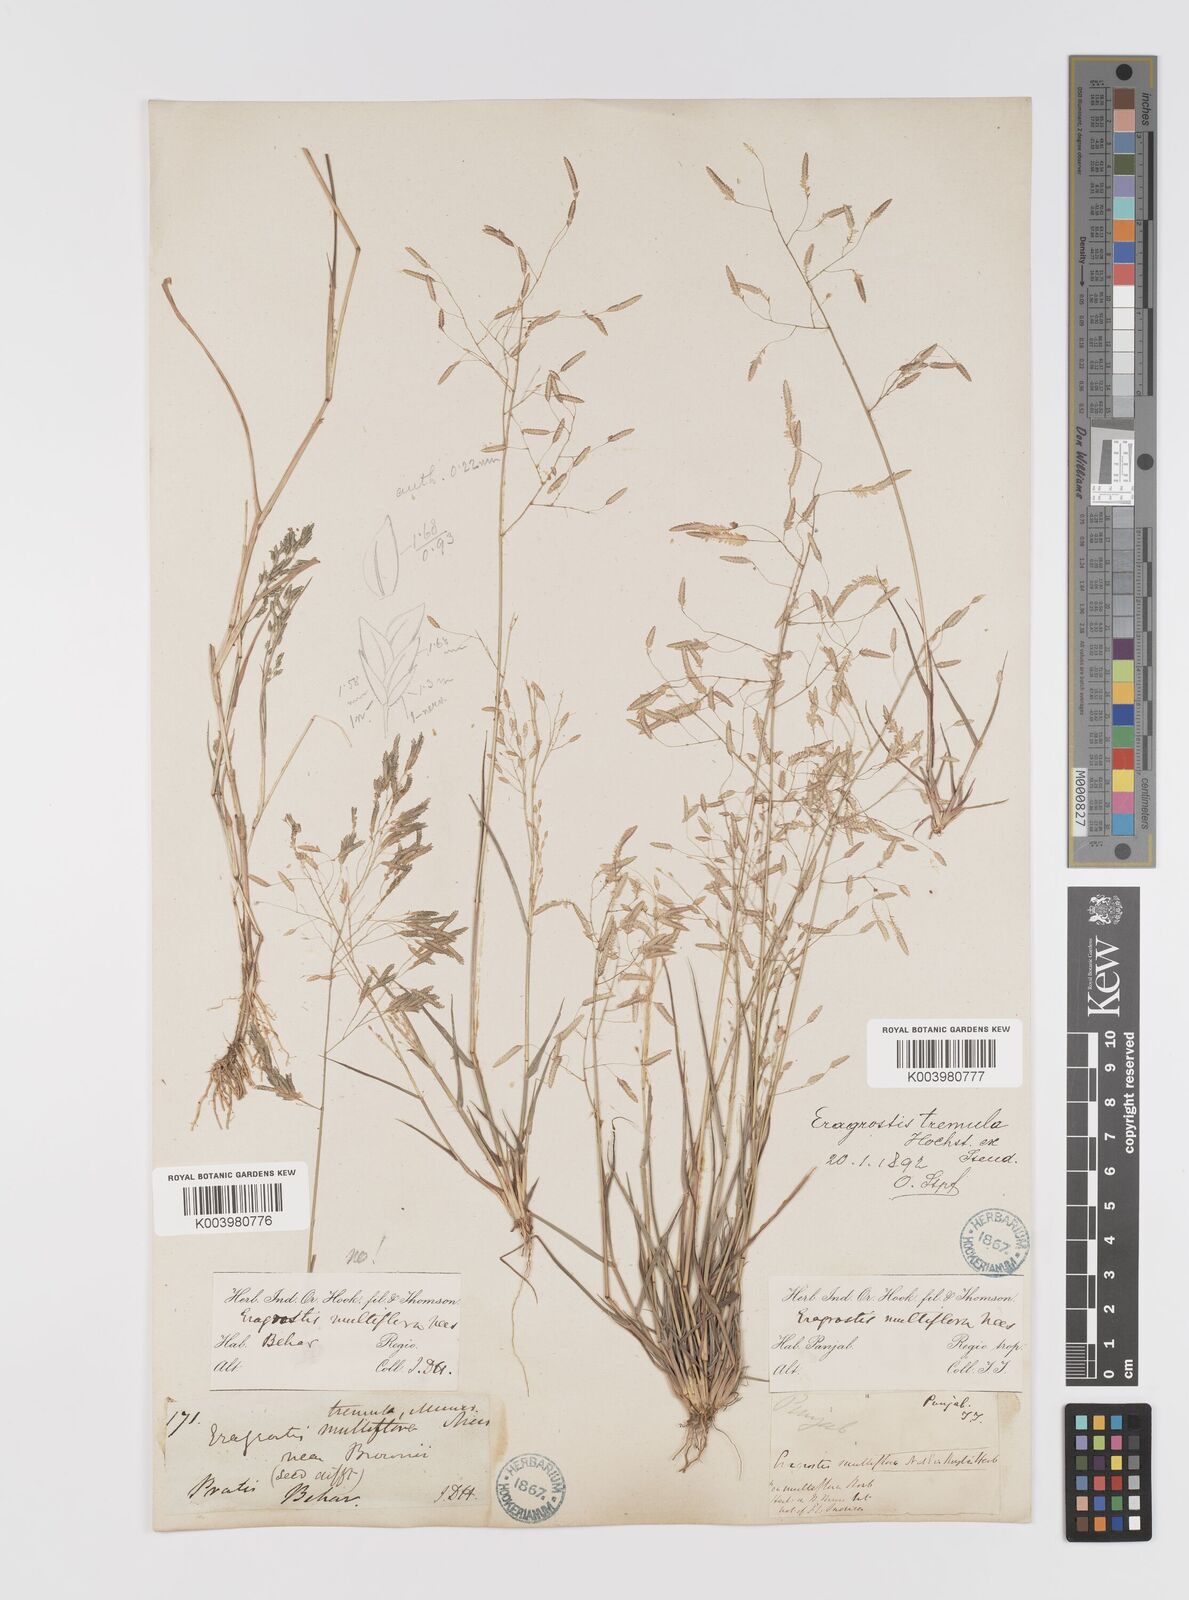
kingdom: Plantae
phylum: Tracheophyta
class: Liliopsida
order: Poales
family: Poaceae
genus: Eragrostis
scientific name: Eragrostis tremula
